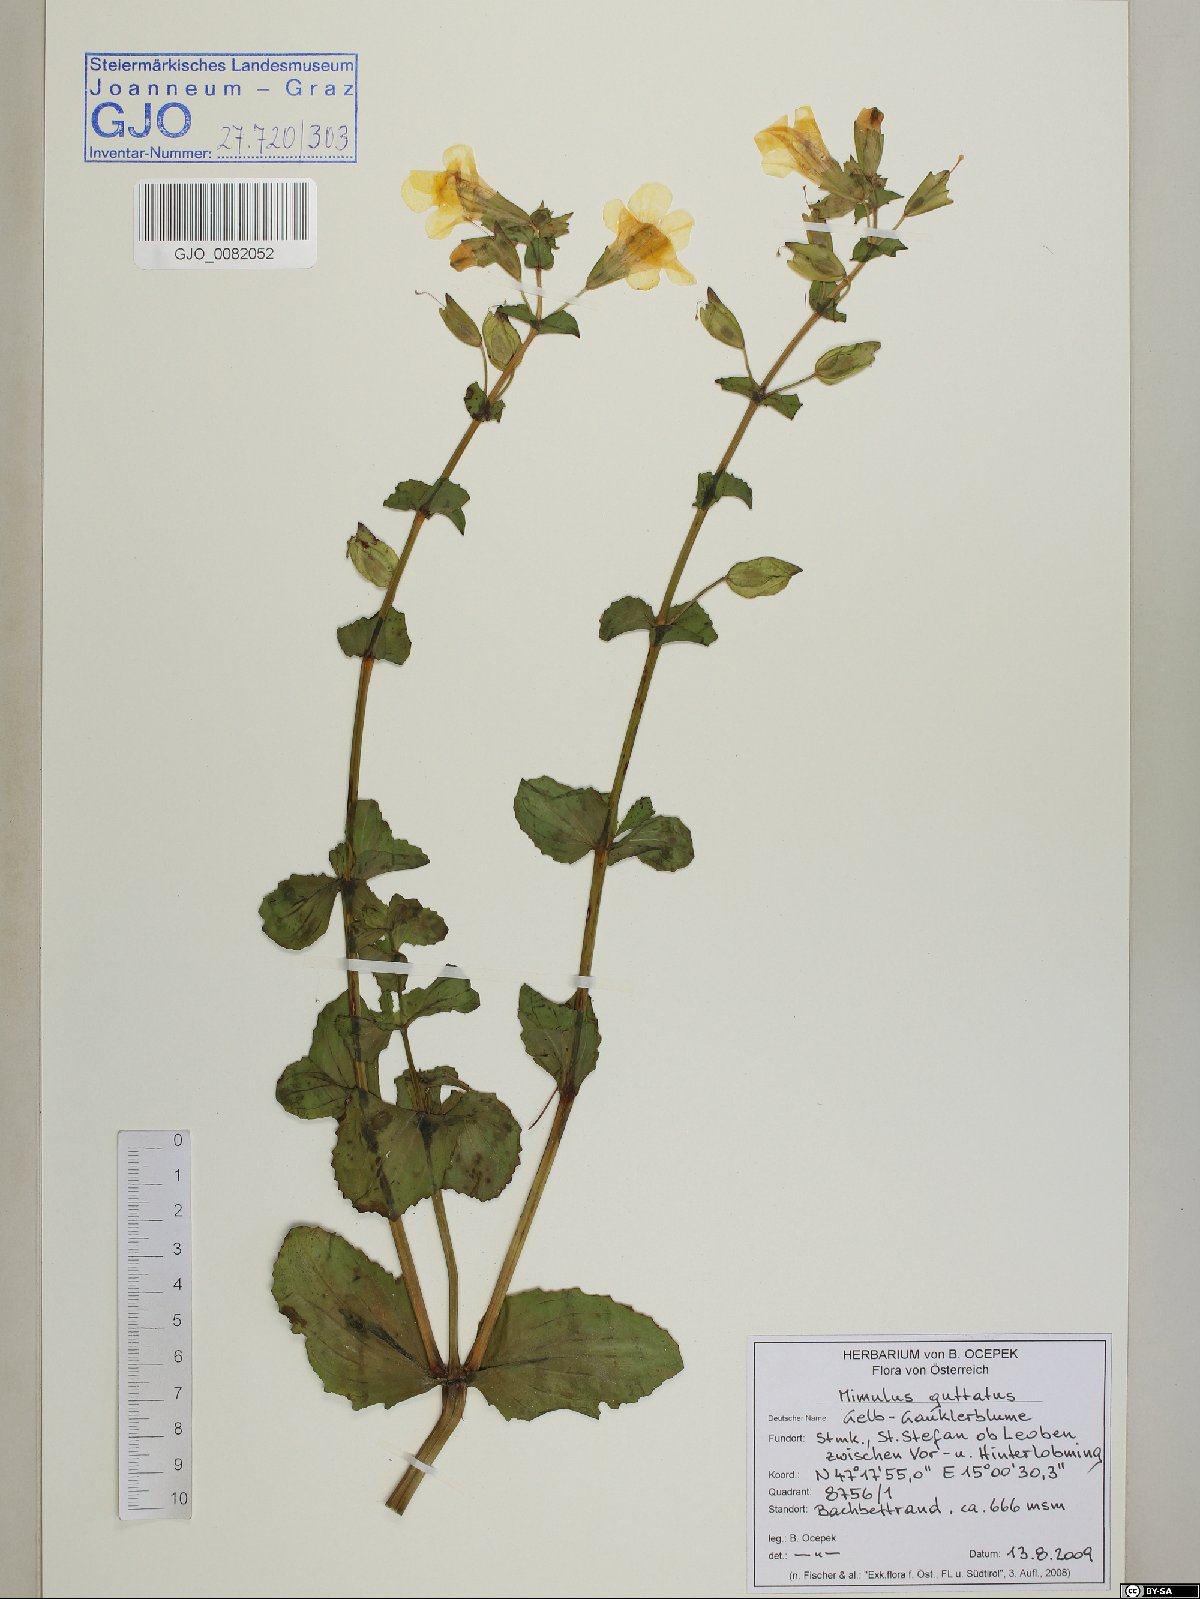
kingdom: Plantae
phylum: Tracheophyta
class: Magnoliopsida
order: Lamiales
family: Phrymaceae
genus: Erythranthe
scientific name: Erythranthe guttata
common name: Monkeyflower
